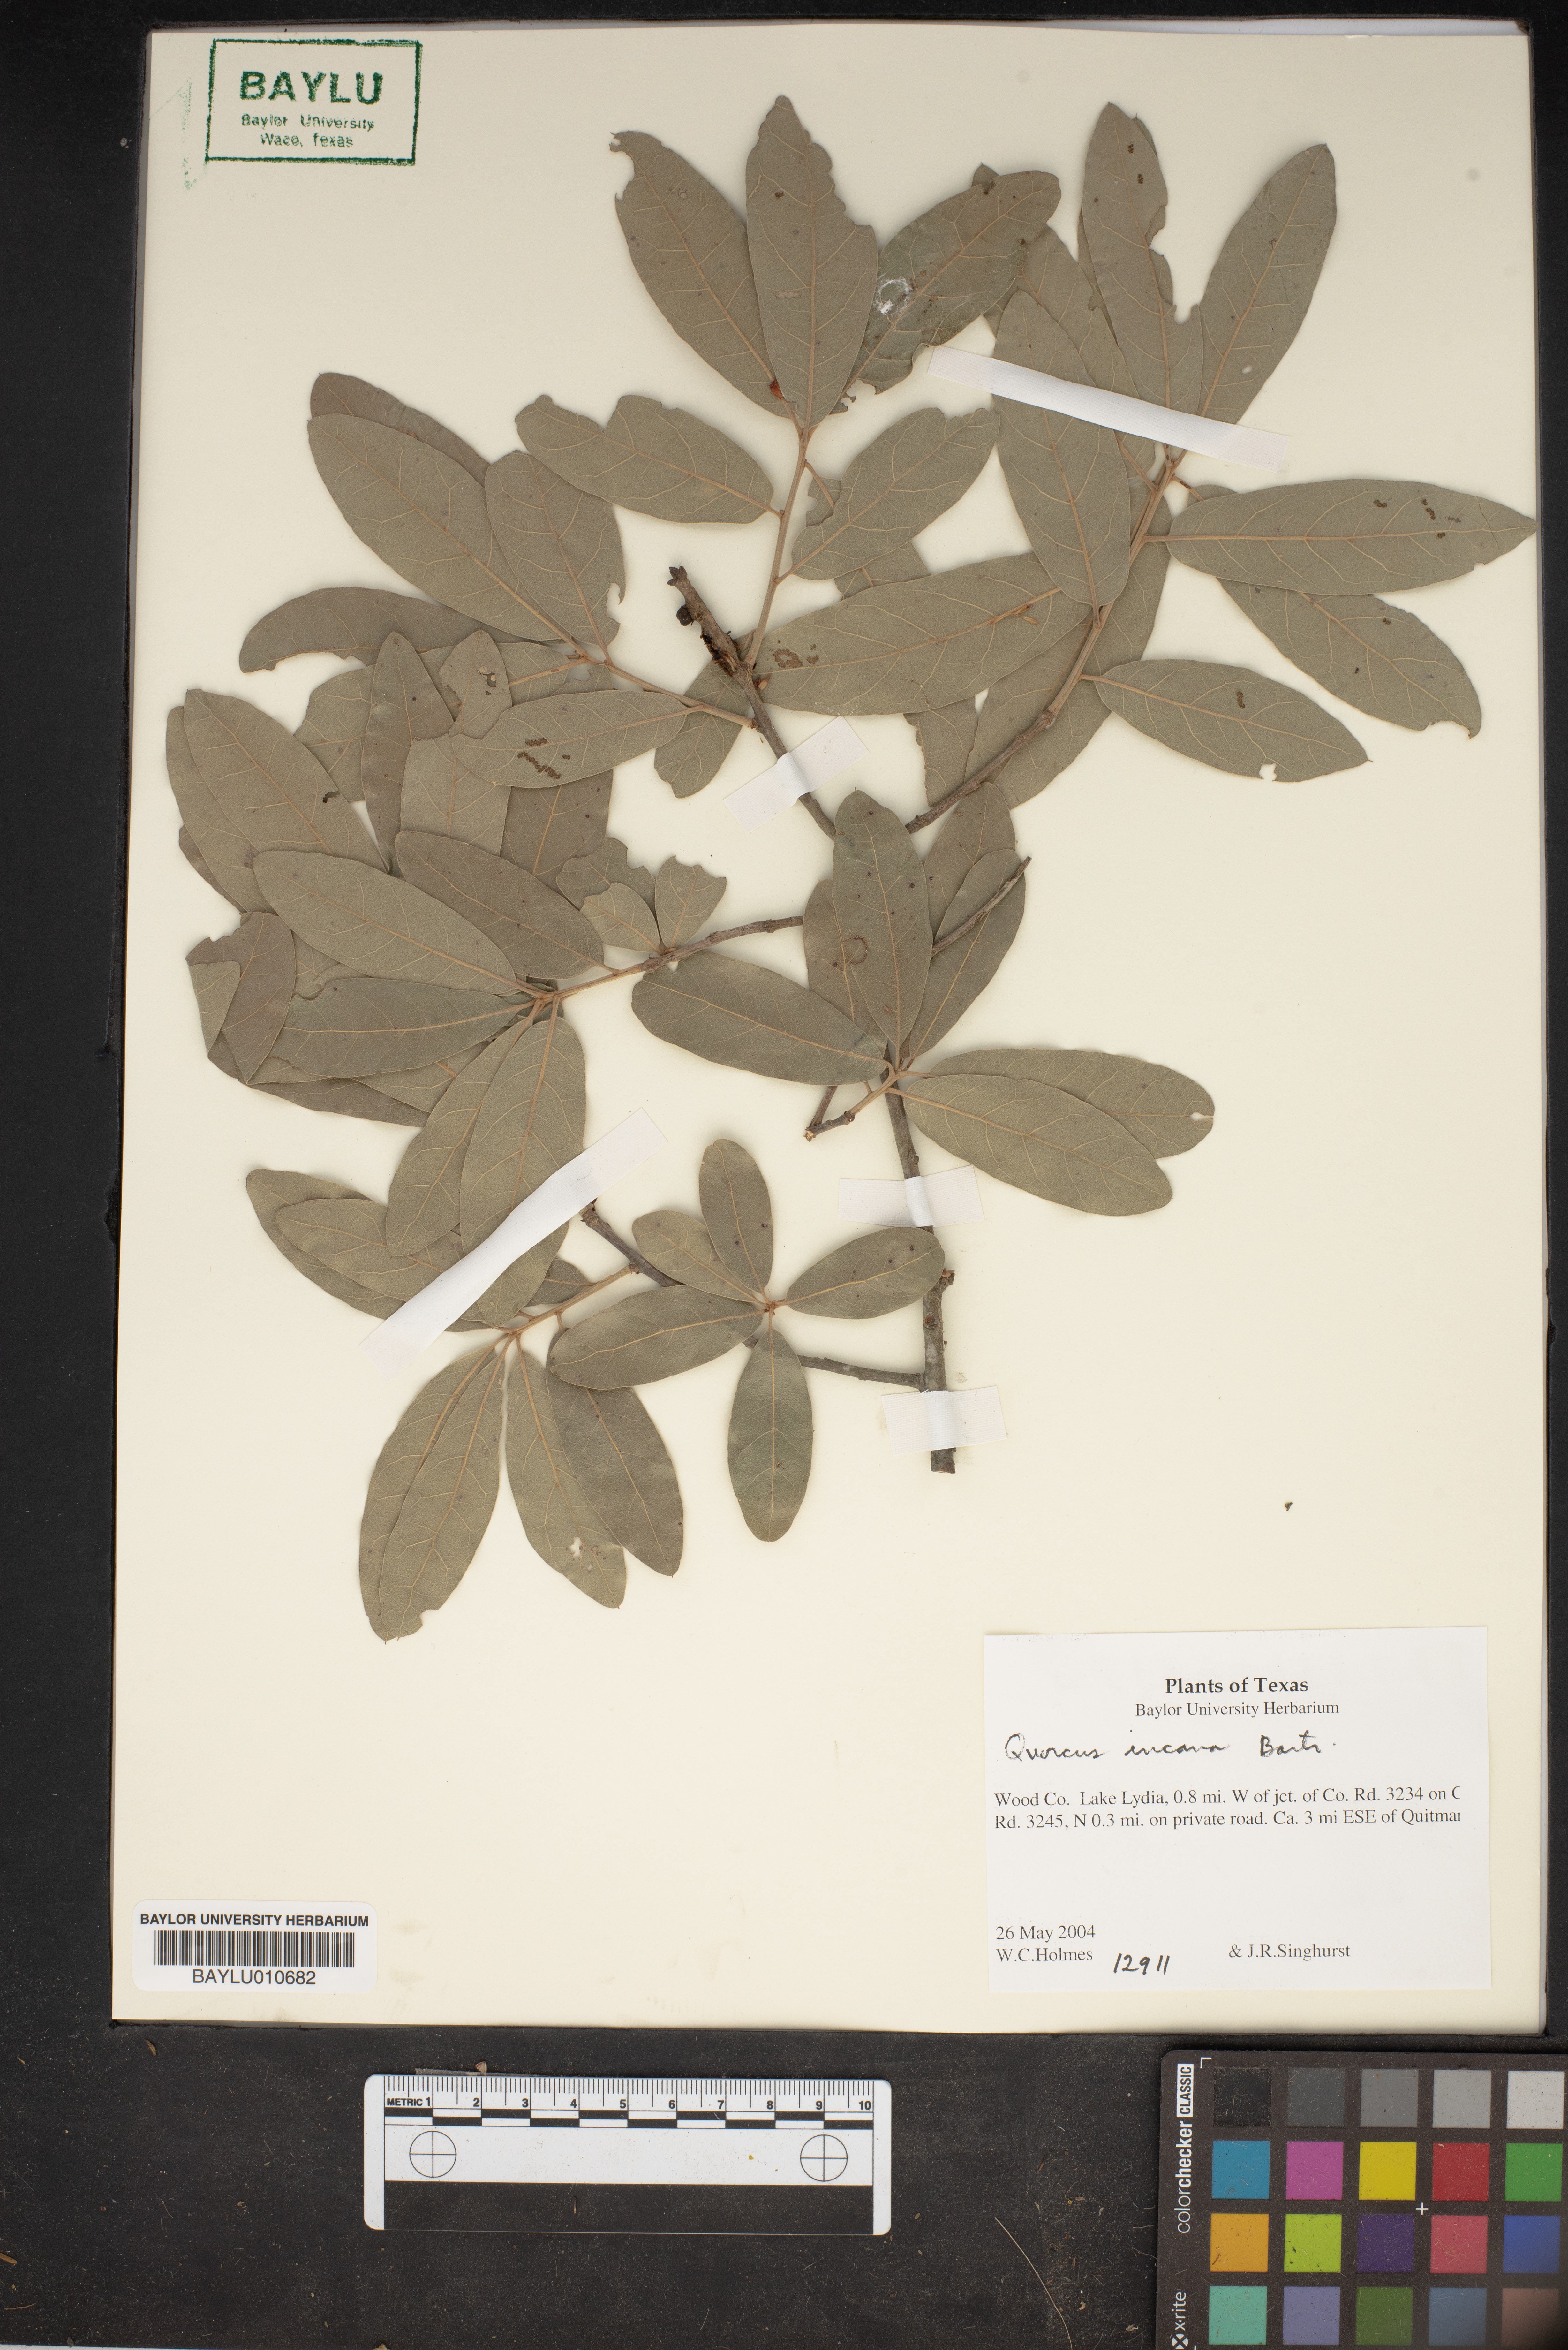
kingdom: Plantae
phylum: Tracheophyta
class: Magnoliopsida
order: Fagales
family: Fagaceae
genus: Quercus
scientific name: Quercus incana
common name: Bluejack oak
